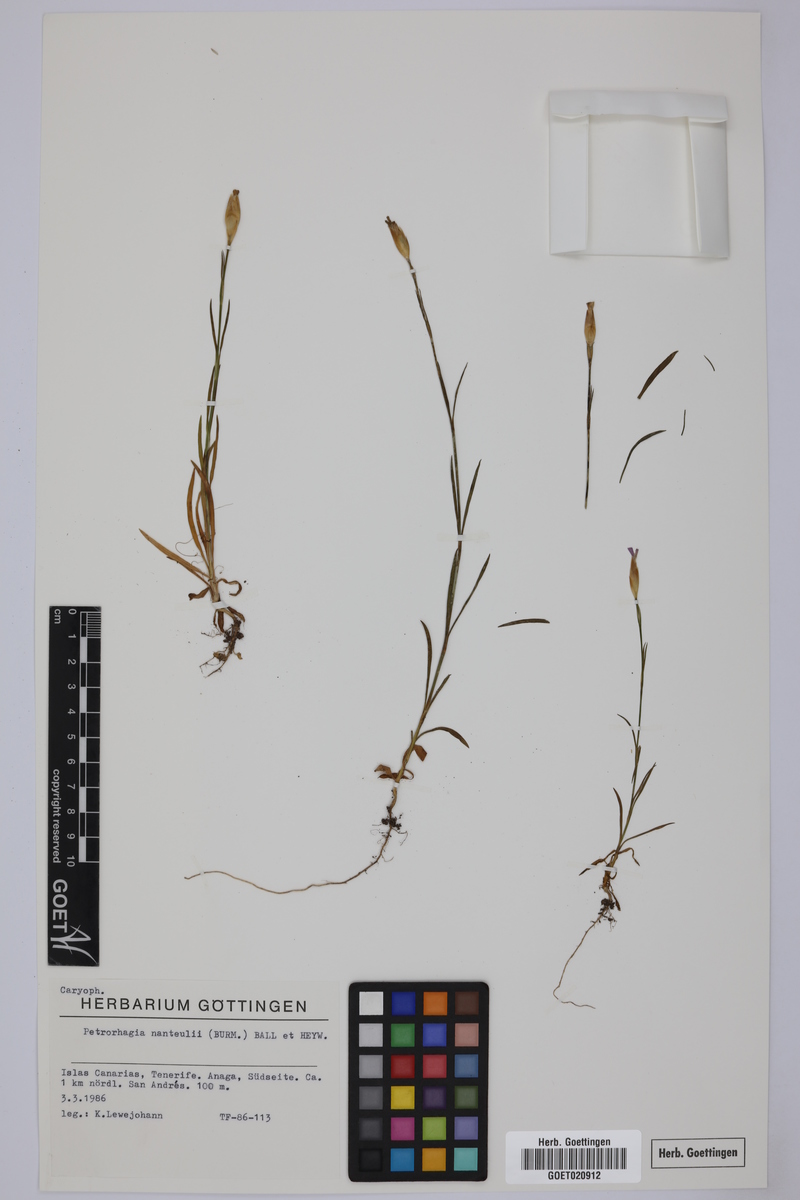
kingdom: Plantae
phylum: Tracheophyta
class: Magnoliopsida
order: Caryophyllales
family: Caryophyllaceae
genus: Petrorhagia
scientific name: Petrorhagia nanteuilii
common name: Proliferous pink
